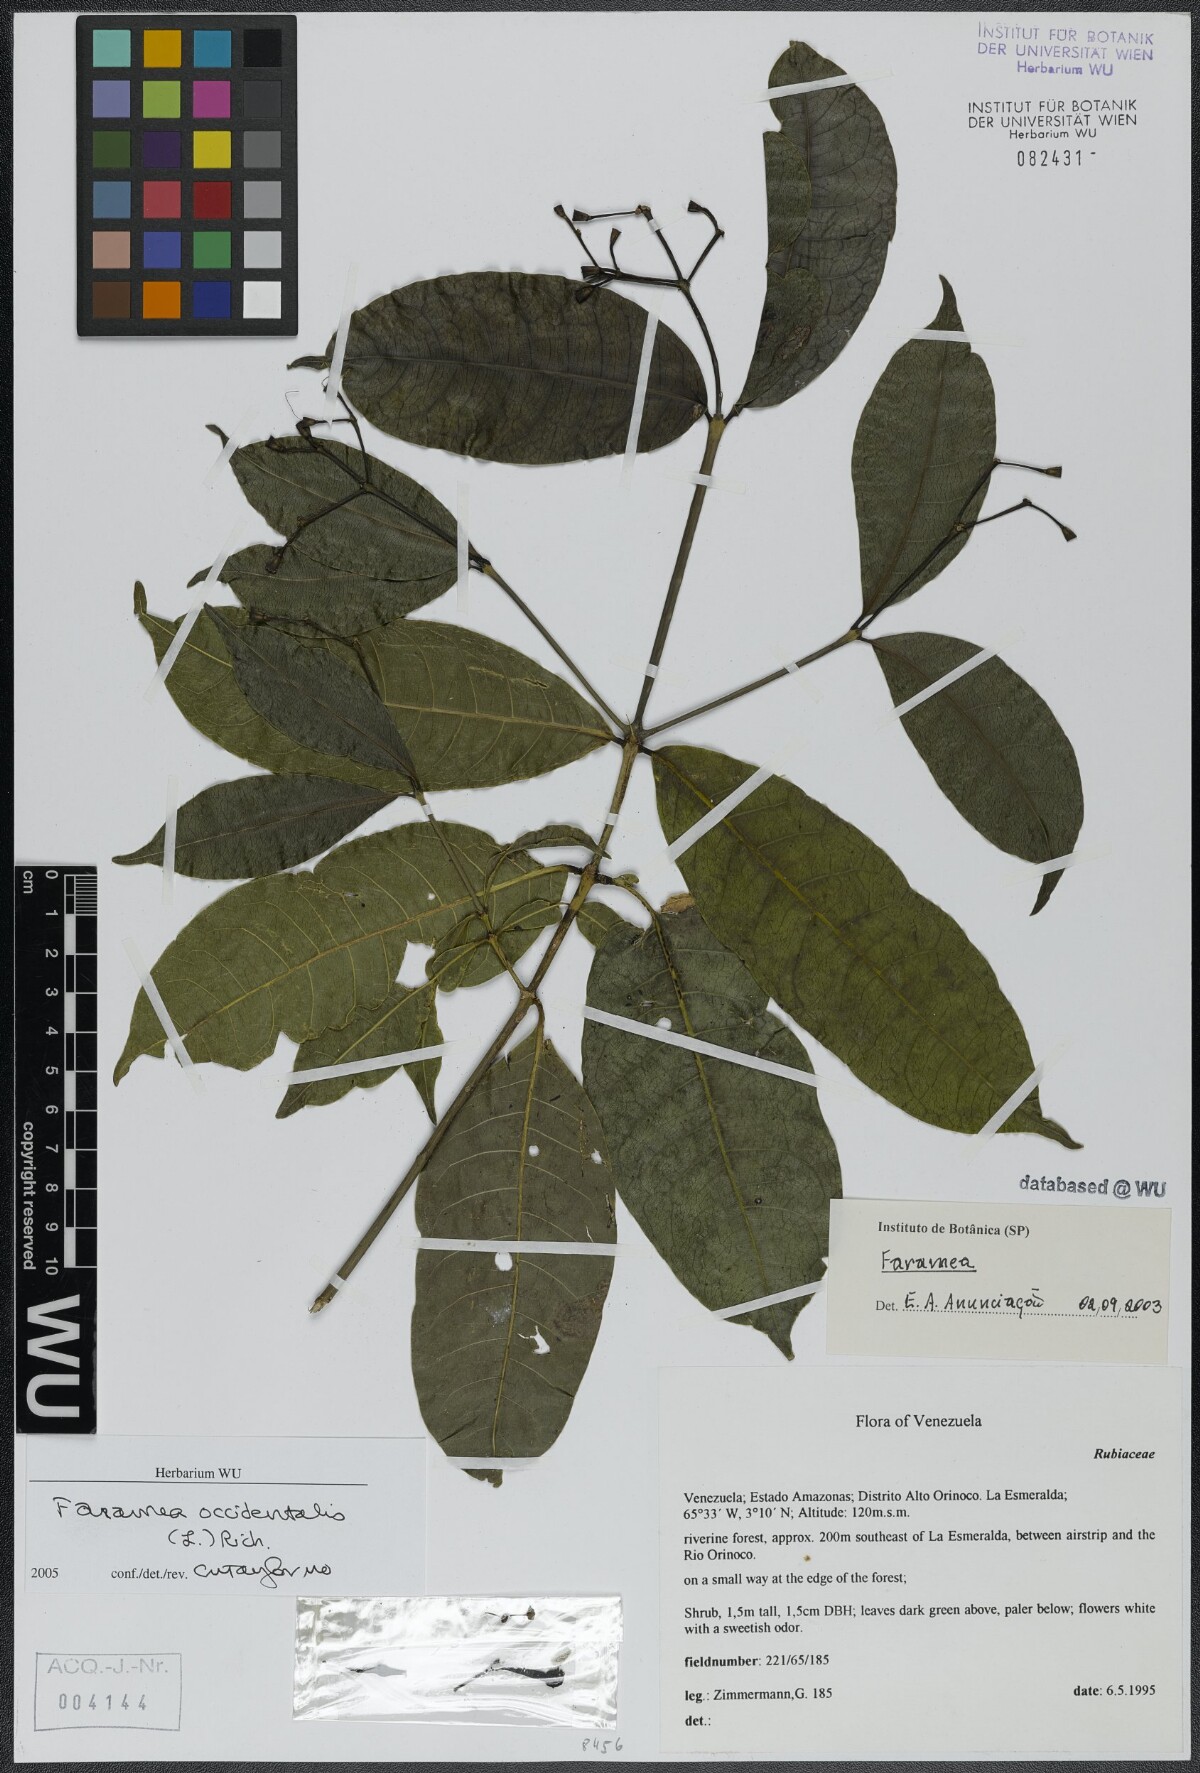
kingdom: Plantae
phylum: Tracheophyta
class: Magnoliopsida
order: Gentianales
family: Rubiaceae
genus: Faramea
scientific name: Faramea occidentalis
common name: False coffee
